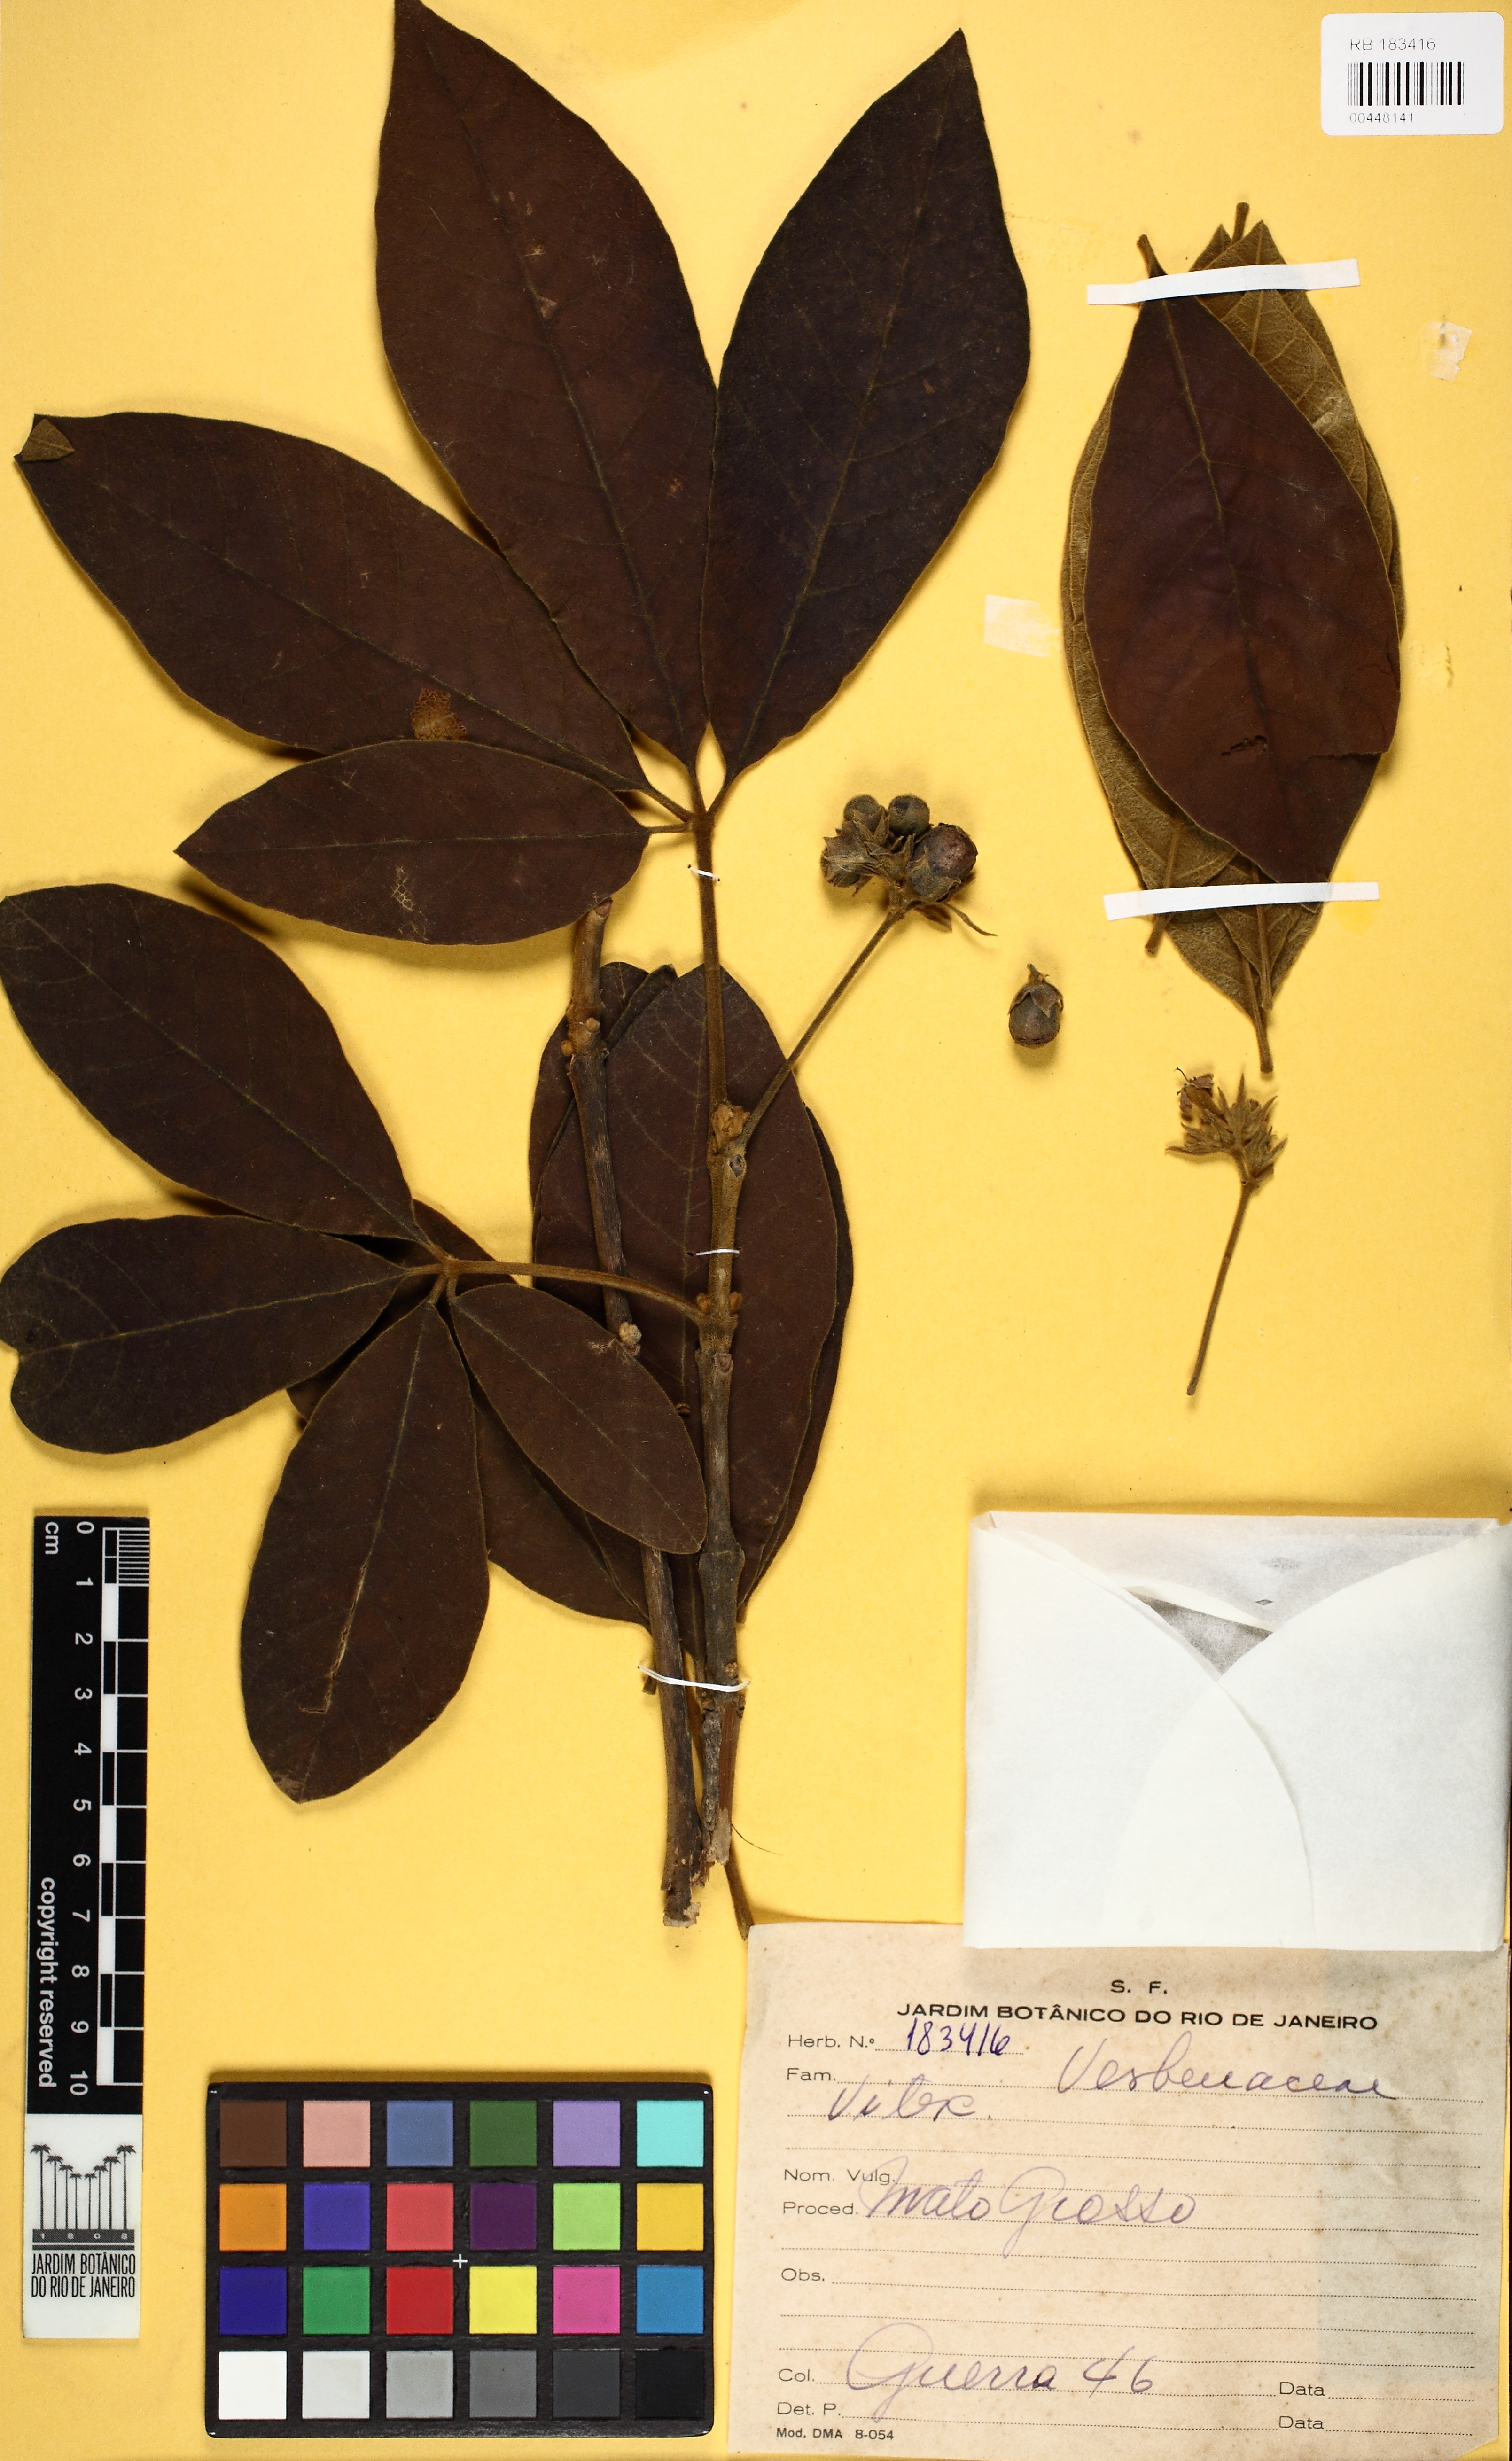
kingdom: Plantae
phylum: Tracheophyta
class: Magnoliopsida
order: Lamiales
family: Lamiaceae
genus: Vitex
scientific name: Vitex
